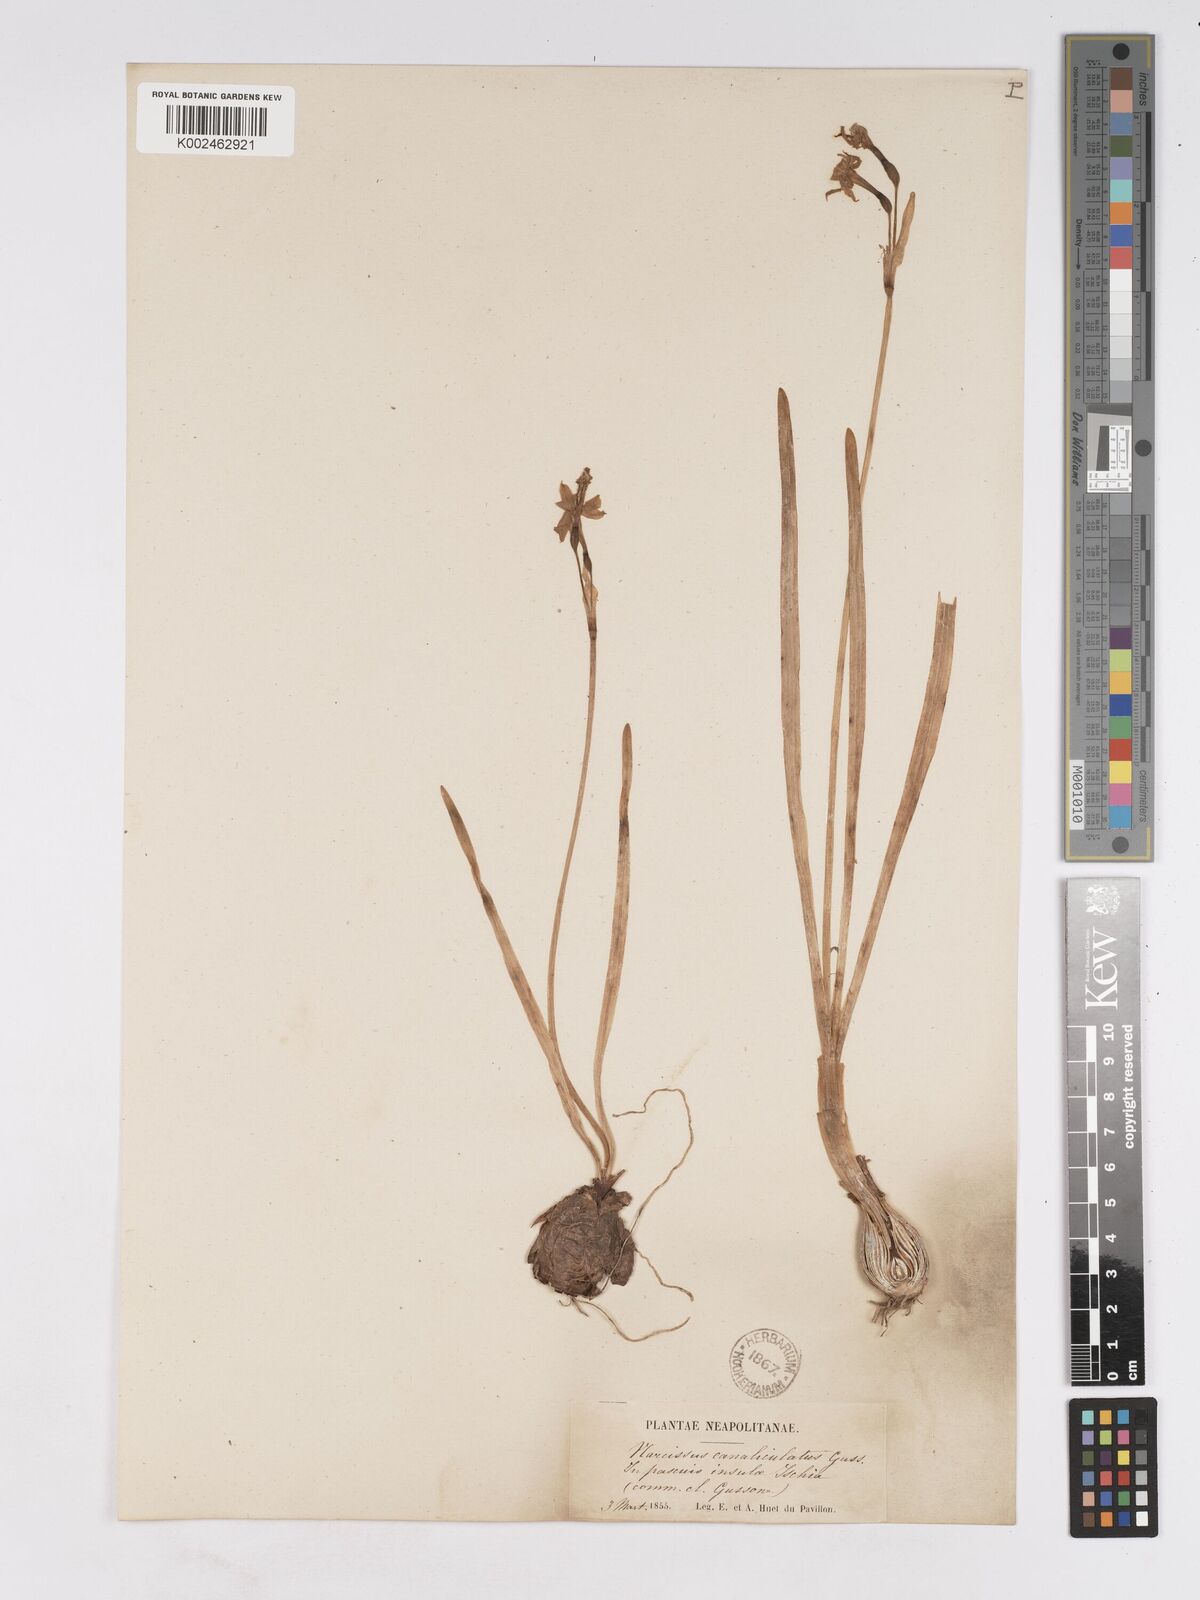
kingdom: Plantae
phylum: Tracheophyta
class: Liliopsida
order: Asparagales
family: Amaryllidaceae
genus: Narcissus
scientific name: Narcissus tazetta
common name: Bunch-flowered daffodil
